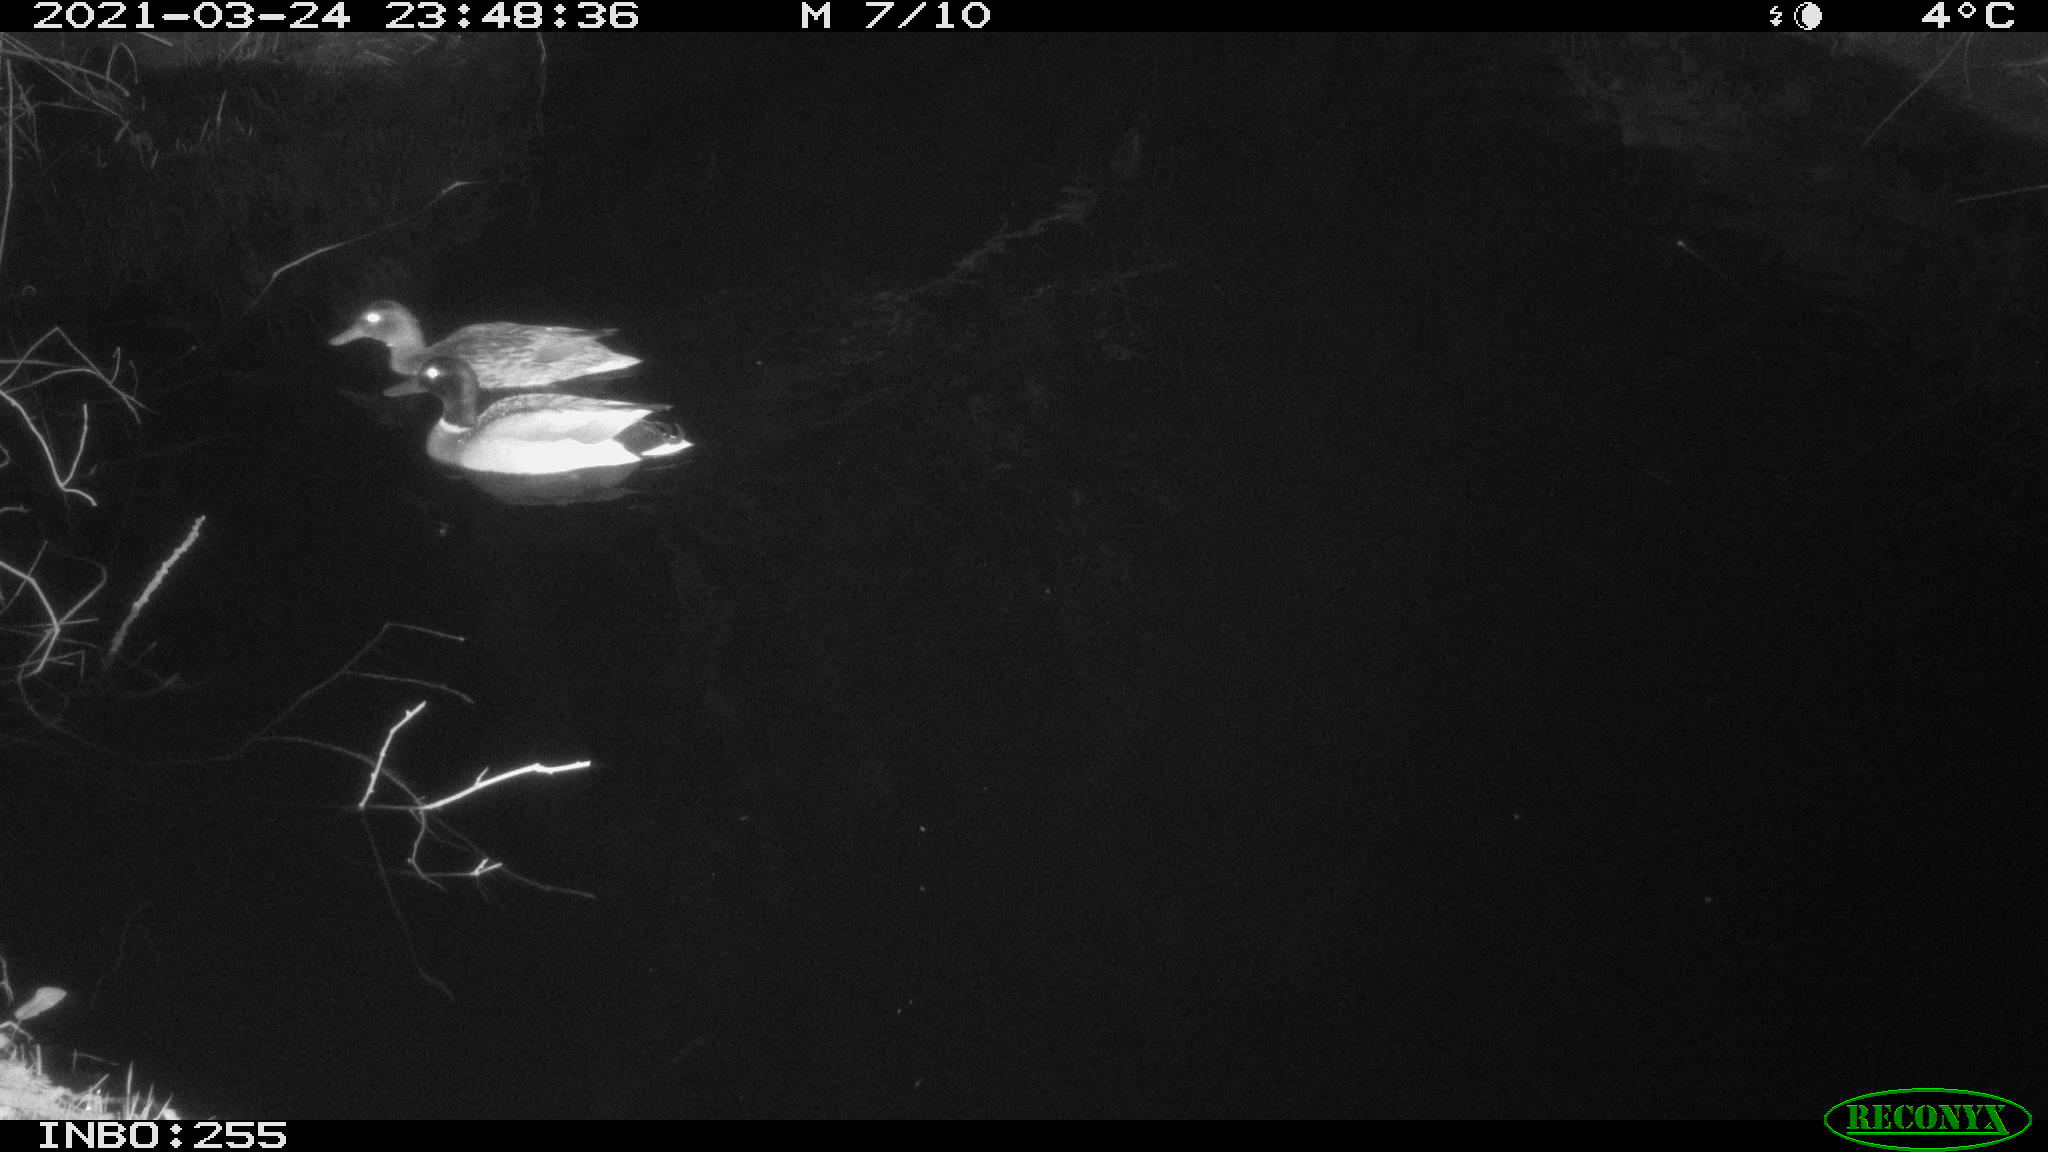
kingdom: Animalia
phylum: Chordata
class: Aves
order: Anseriformes
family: Anatidae
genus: Anas
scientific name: Anas platyrhynchos
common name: Mallard
